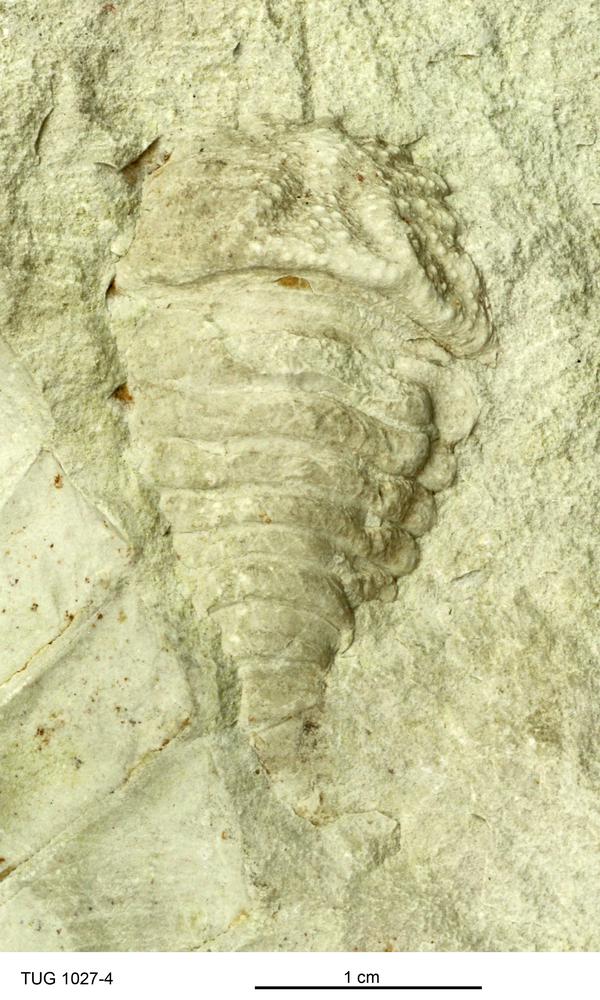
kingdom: Animalia
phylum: Cnidaria
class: Anthozoa
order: Actiniaria
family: Actiniidae
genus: Bunodes
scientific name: Bunodes
